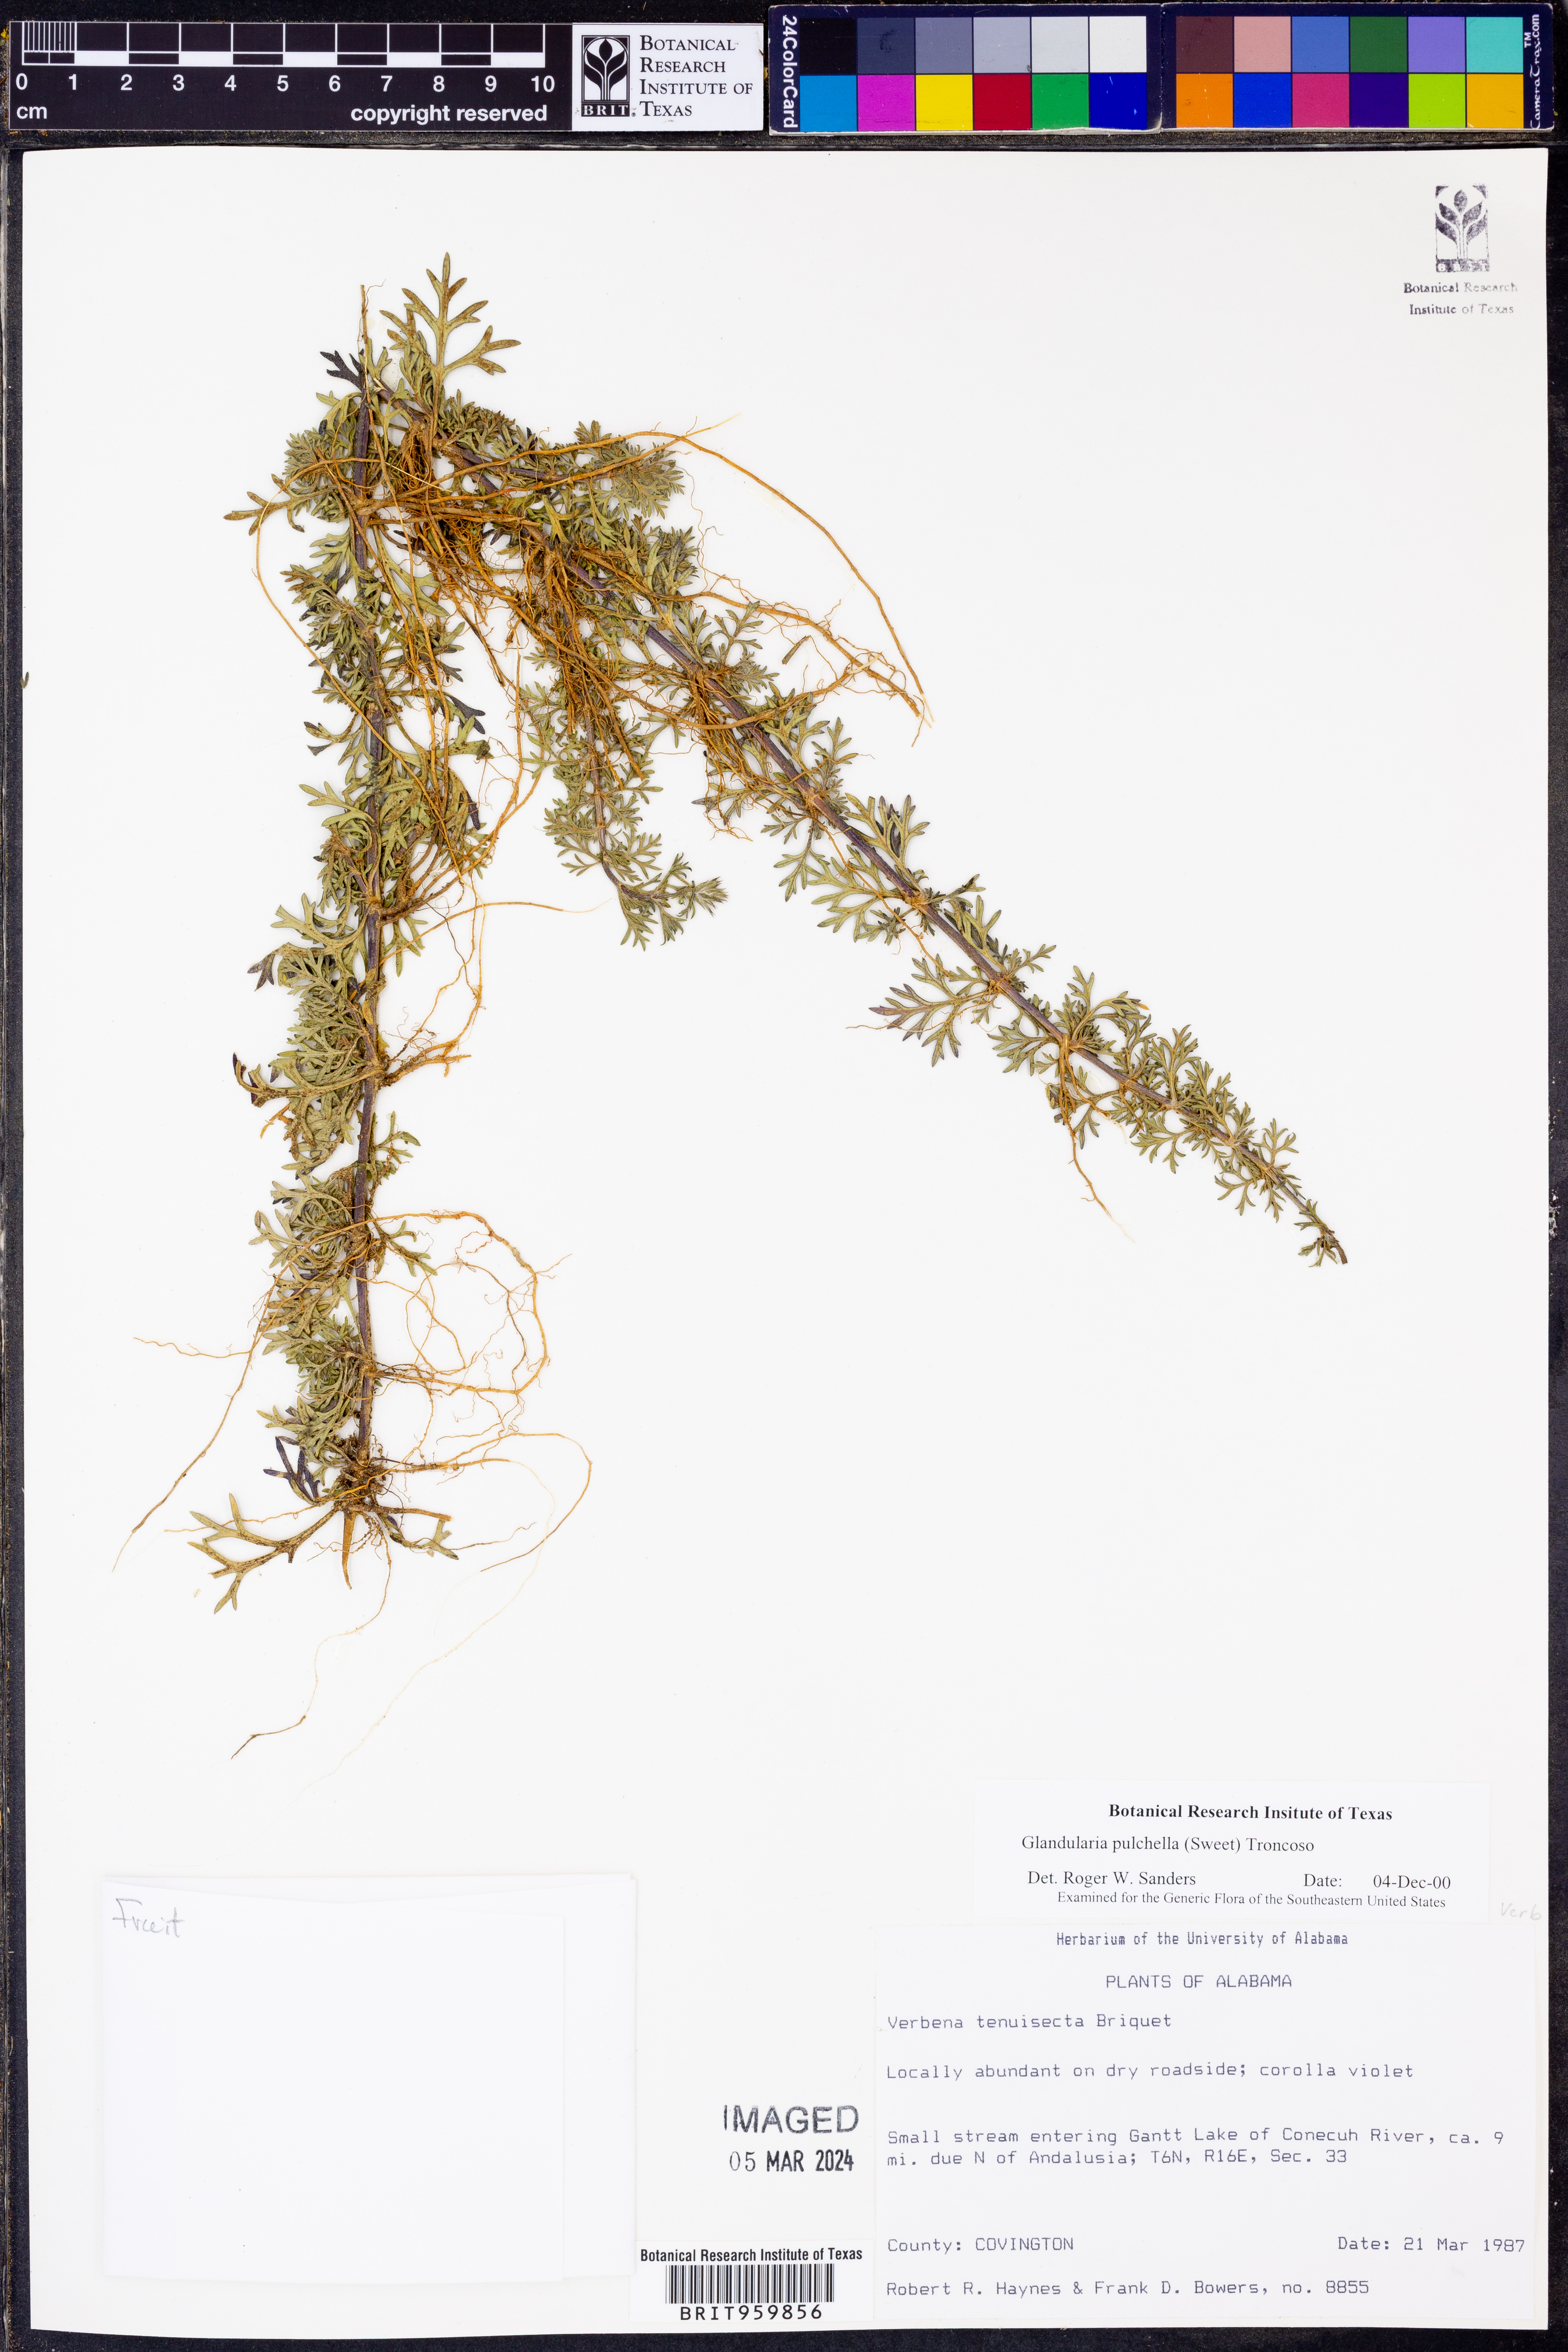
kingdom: Plantae
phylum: Tracheophyta
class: Magnoliopsida
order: Lamiales
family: Verbenaceae
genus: Verbena
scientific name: Verbena tenera
